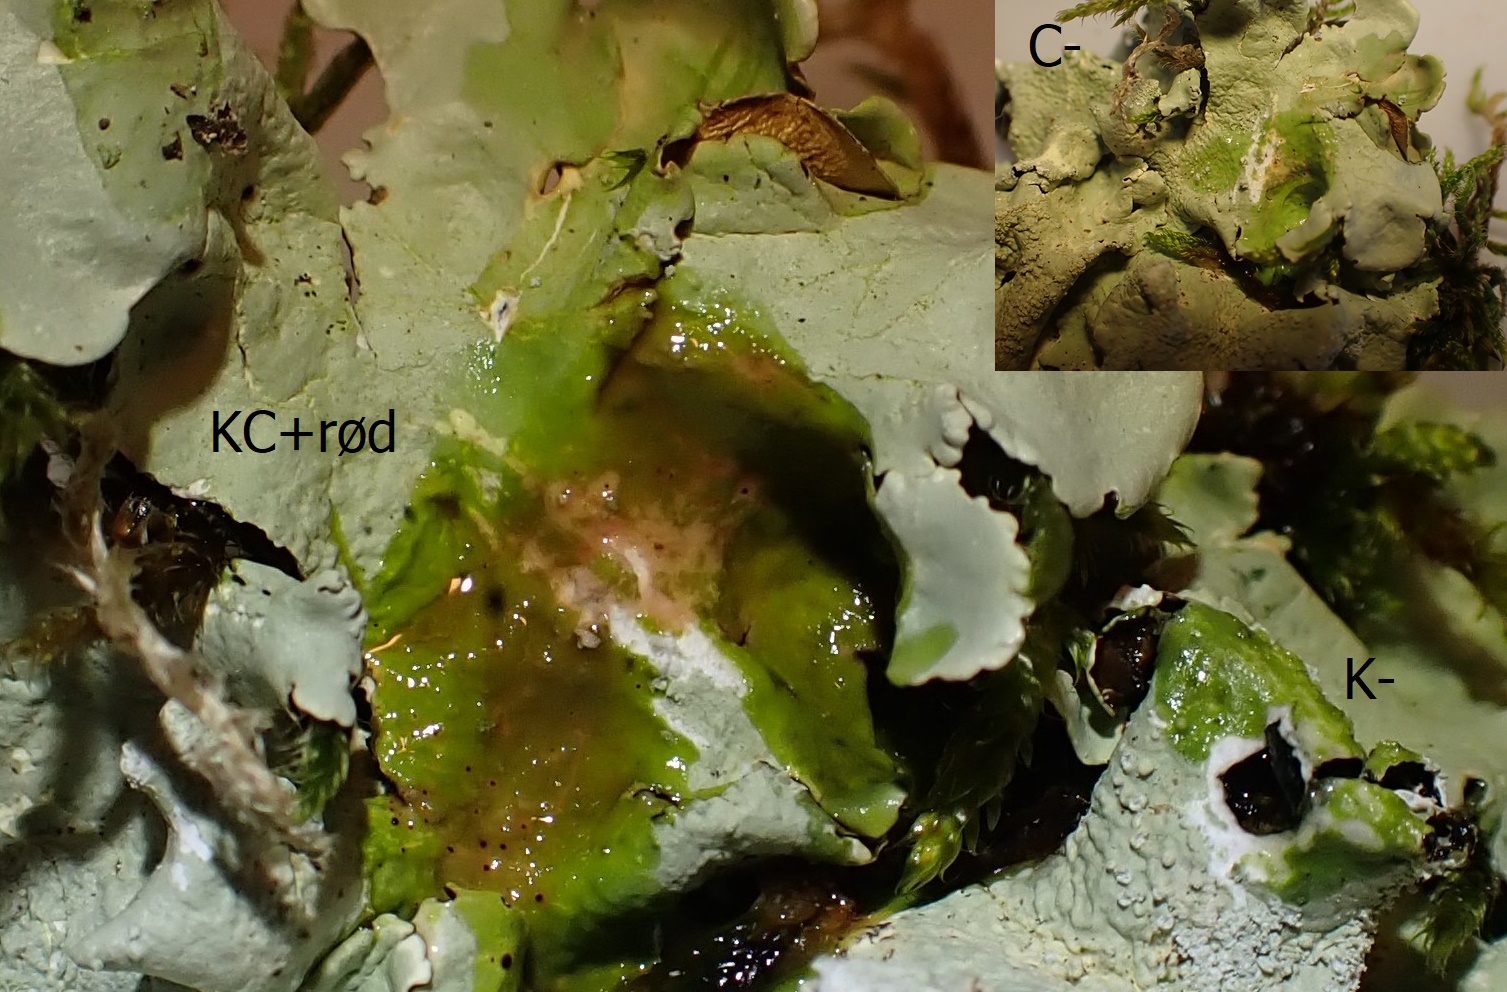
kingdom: Fungi
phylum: Ascomycota
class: Lecanoromycetes
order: Lecanorales
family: Parmeliaceae
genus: Flavoparmelia
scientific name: Flavoparmelia caperata
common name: gulgrøn skållav
